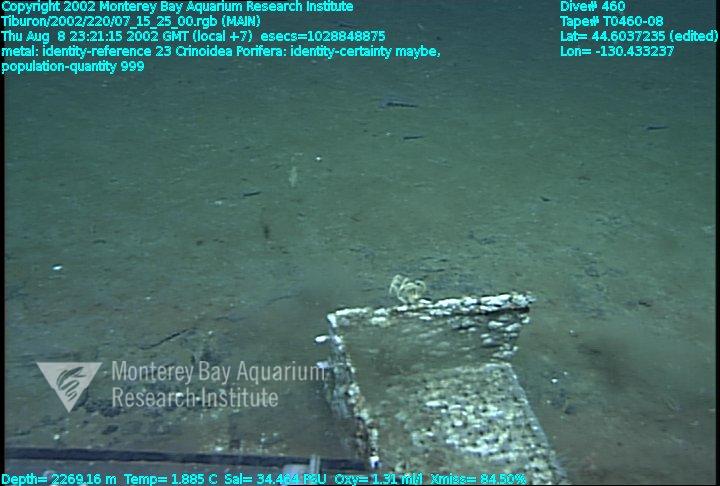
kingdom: Animalia
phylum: Porifera
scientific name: Porifera
